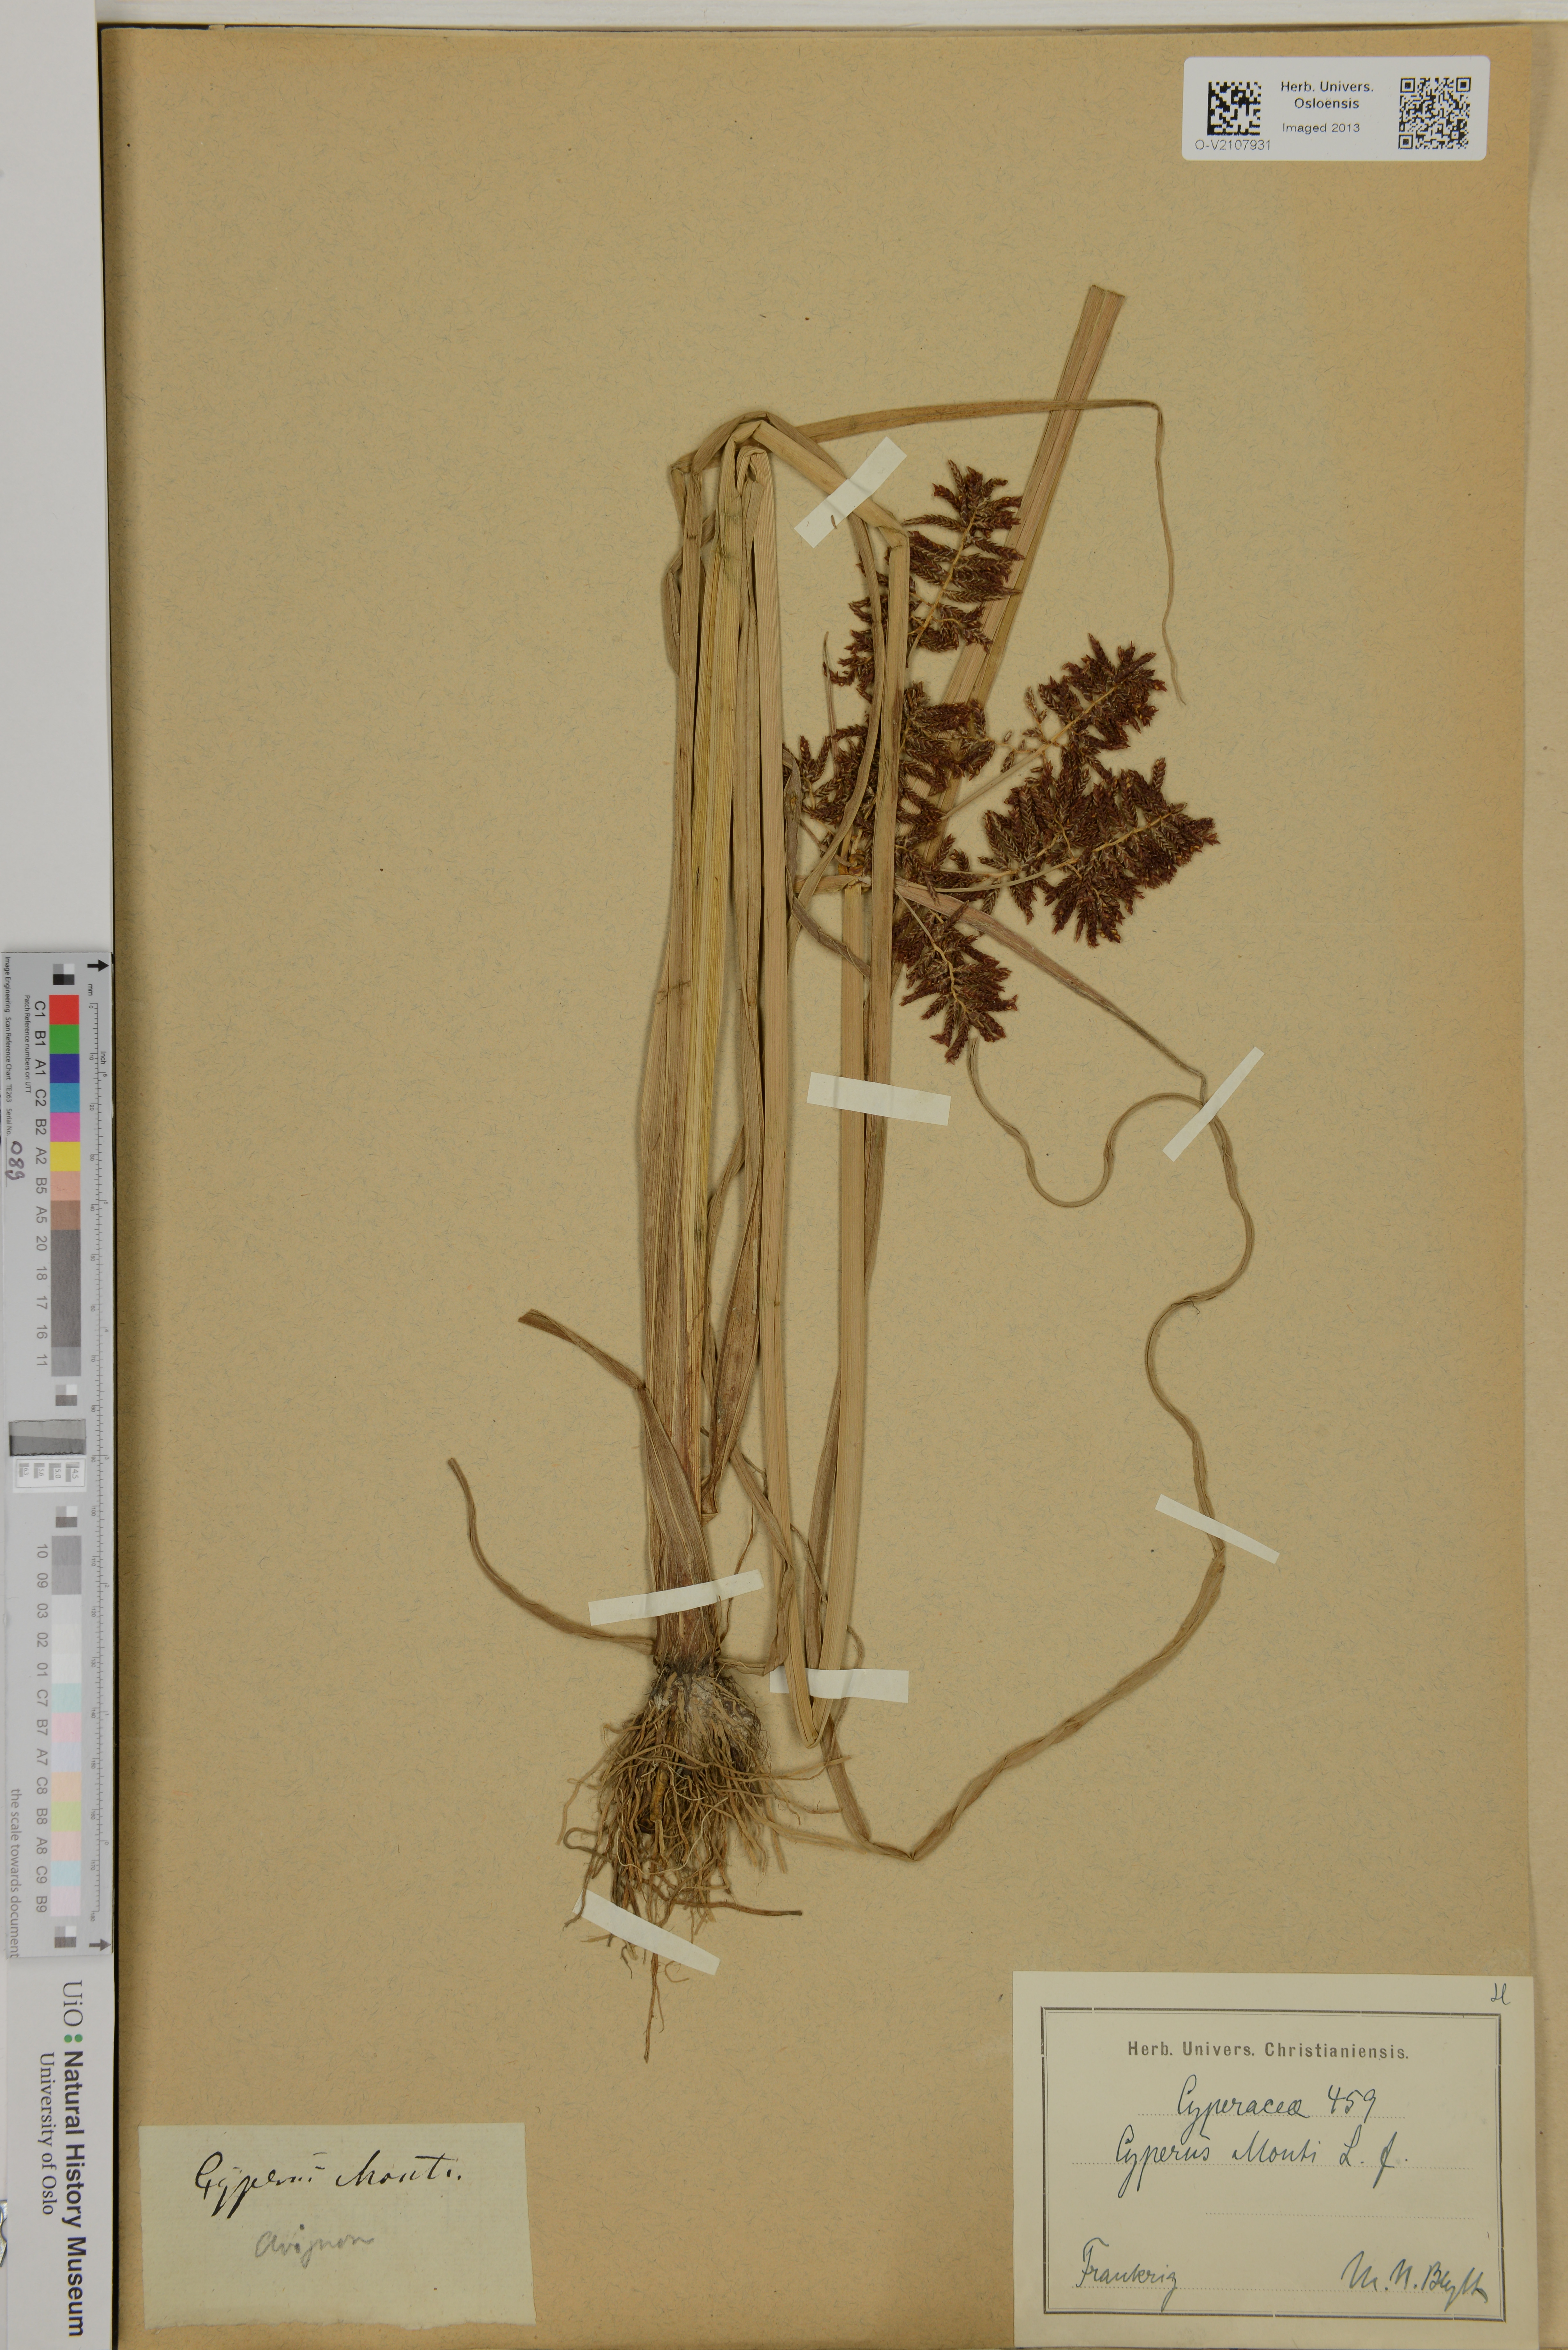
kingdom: Plantae
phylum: Tracheophyta
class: Liliopsida
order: Poales
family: Cyperaceae
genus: Cyperus
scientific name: Cyperus serotinus
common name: Tidalmarsh flatsedge
